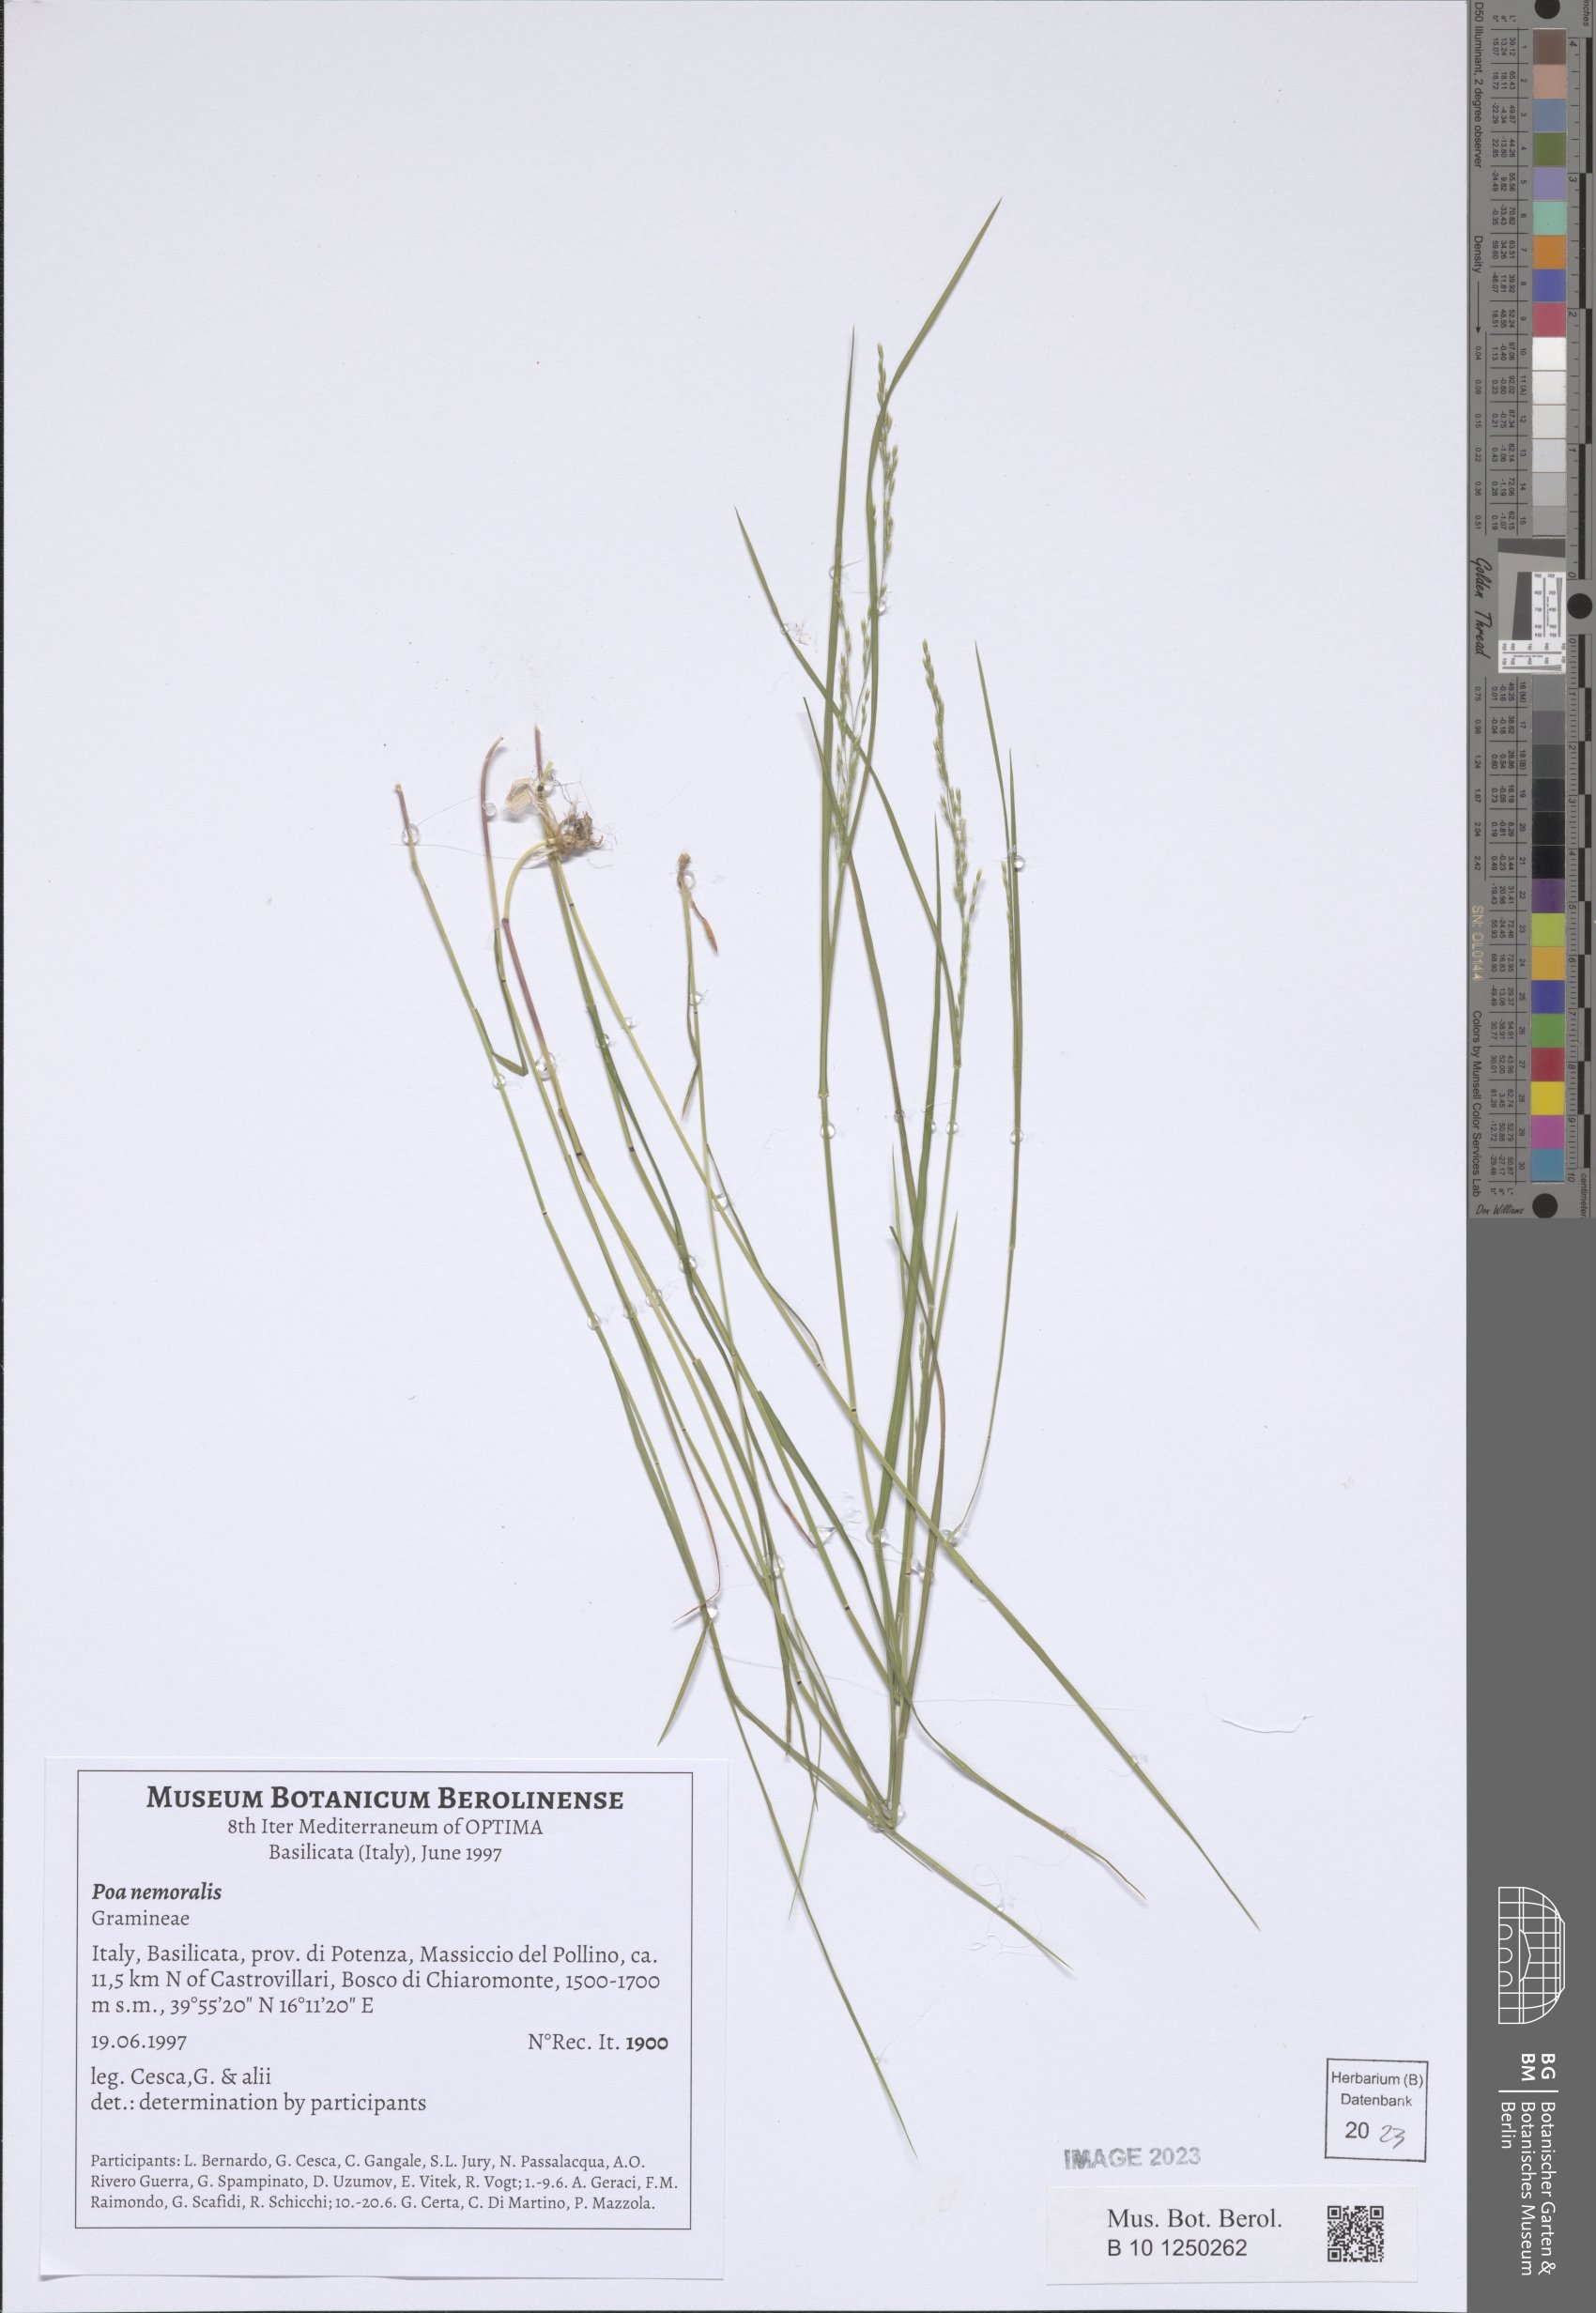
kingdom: Plantae
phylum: Tracheophyta
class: Liliopsida
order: Poales
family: Poaceae
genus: Poa
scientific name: Poa nemoralis
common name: Wood bluegrass
